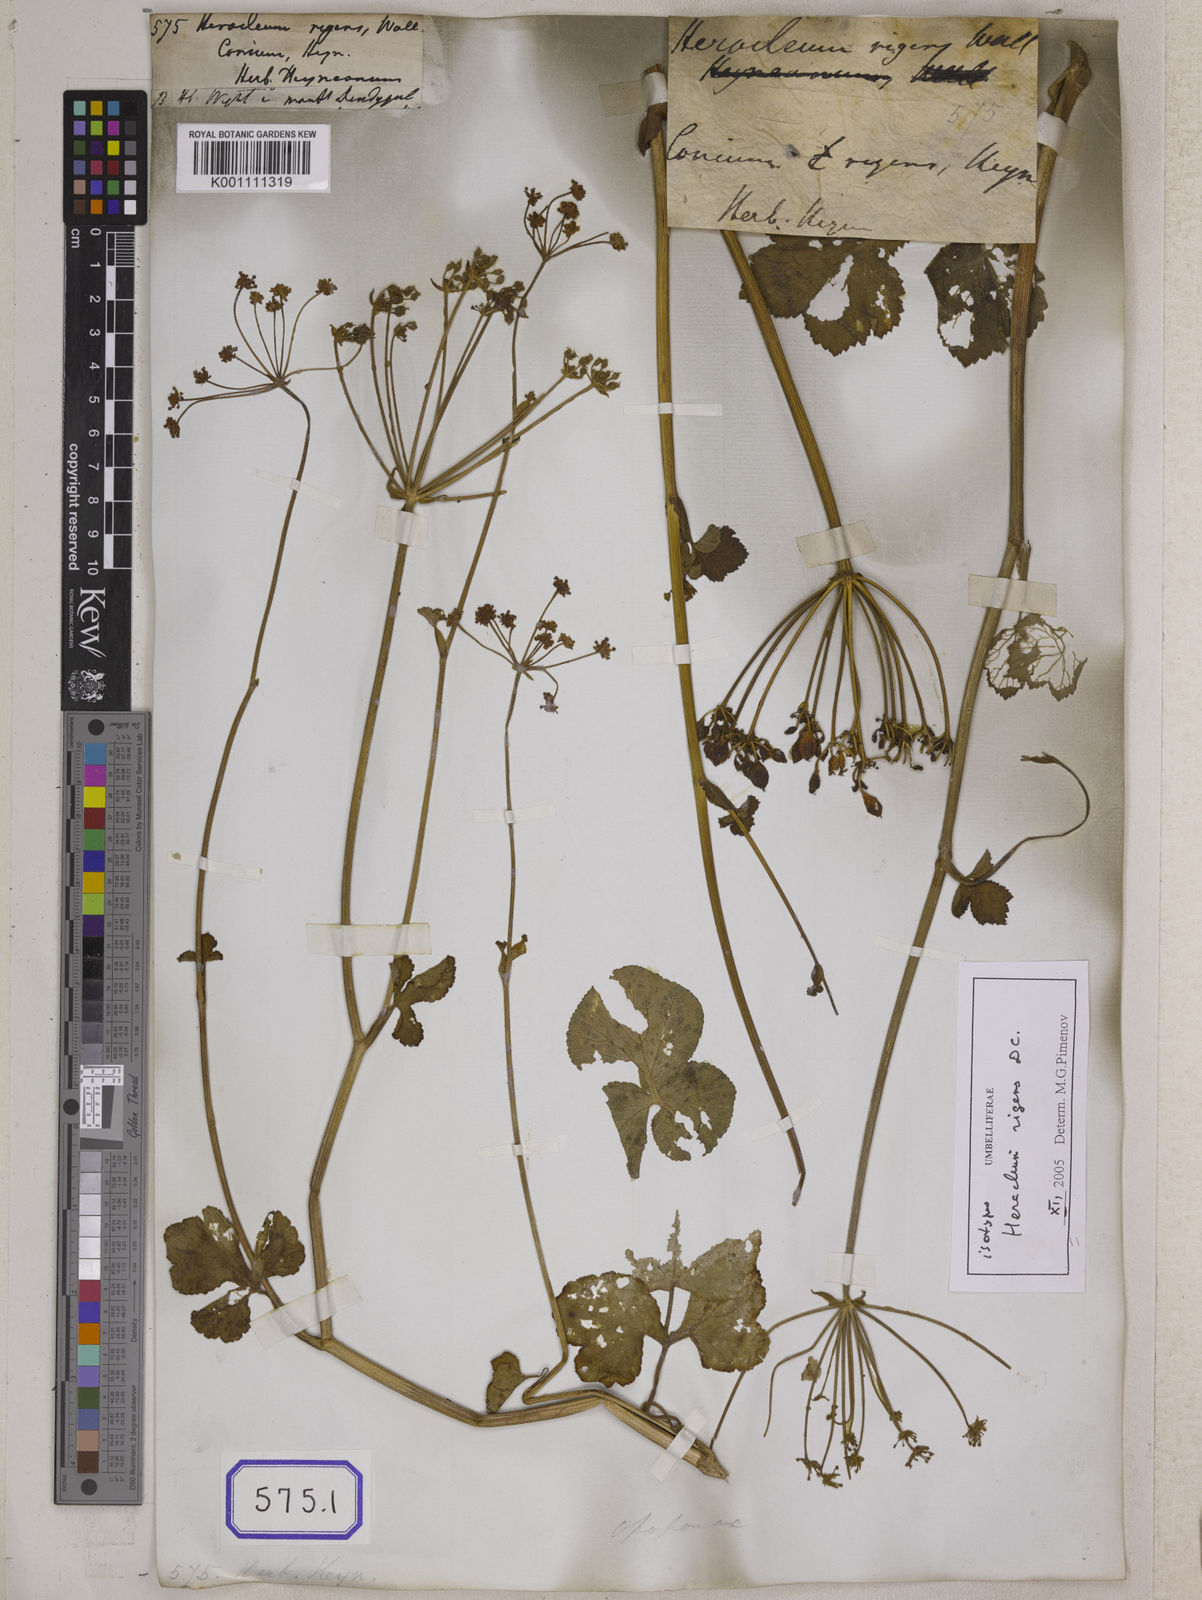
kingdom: Plantae
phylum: Tracheophyta
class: Magnoliopsida
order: Apiales
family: Apiaceae
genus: Heracleum
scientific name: Heracleum
